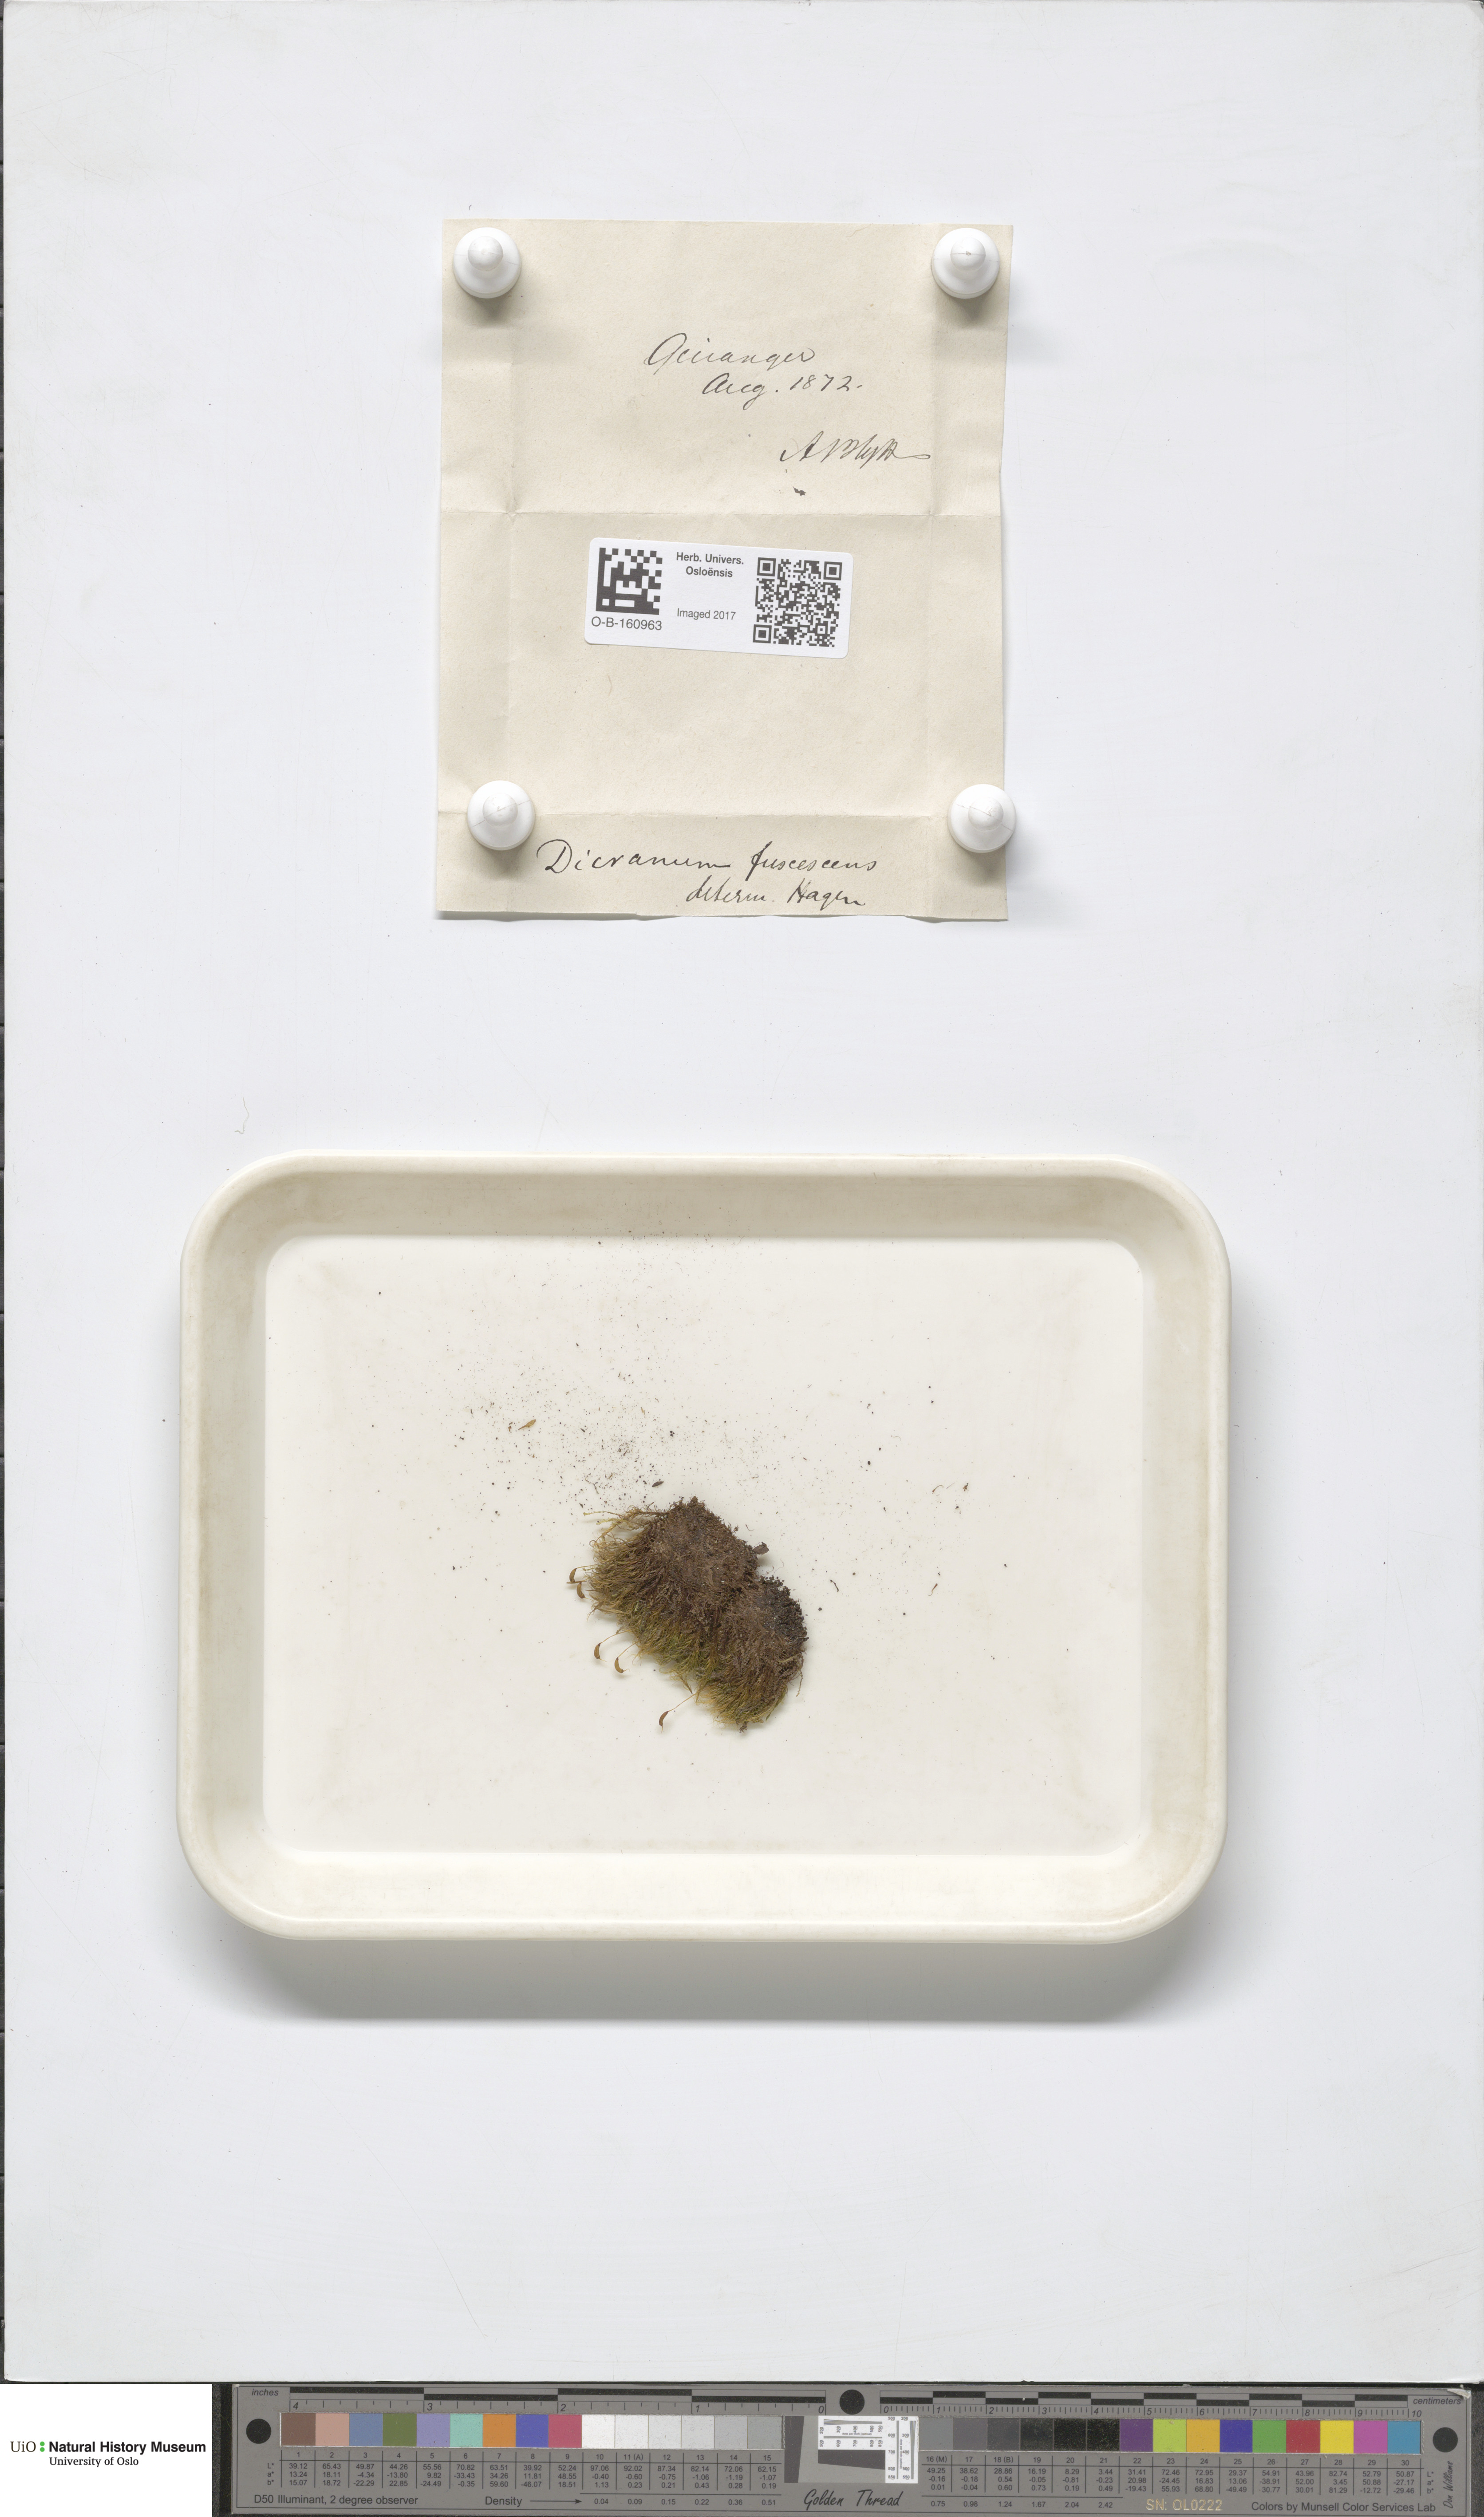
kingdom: Plantae
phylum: Bryophyta
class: Bryopsida
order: Dicranales
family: Dicranaceae
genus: Dicranum
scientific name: Dicranum fuscescens
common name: Curly heron's-bill moss
